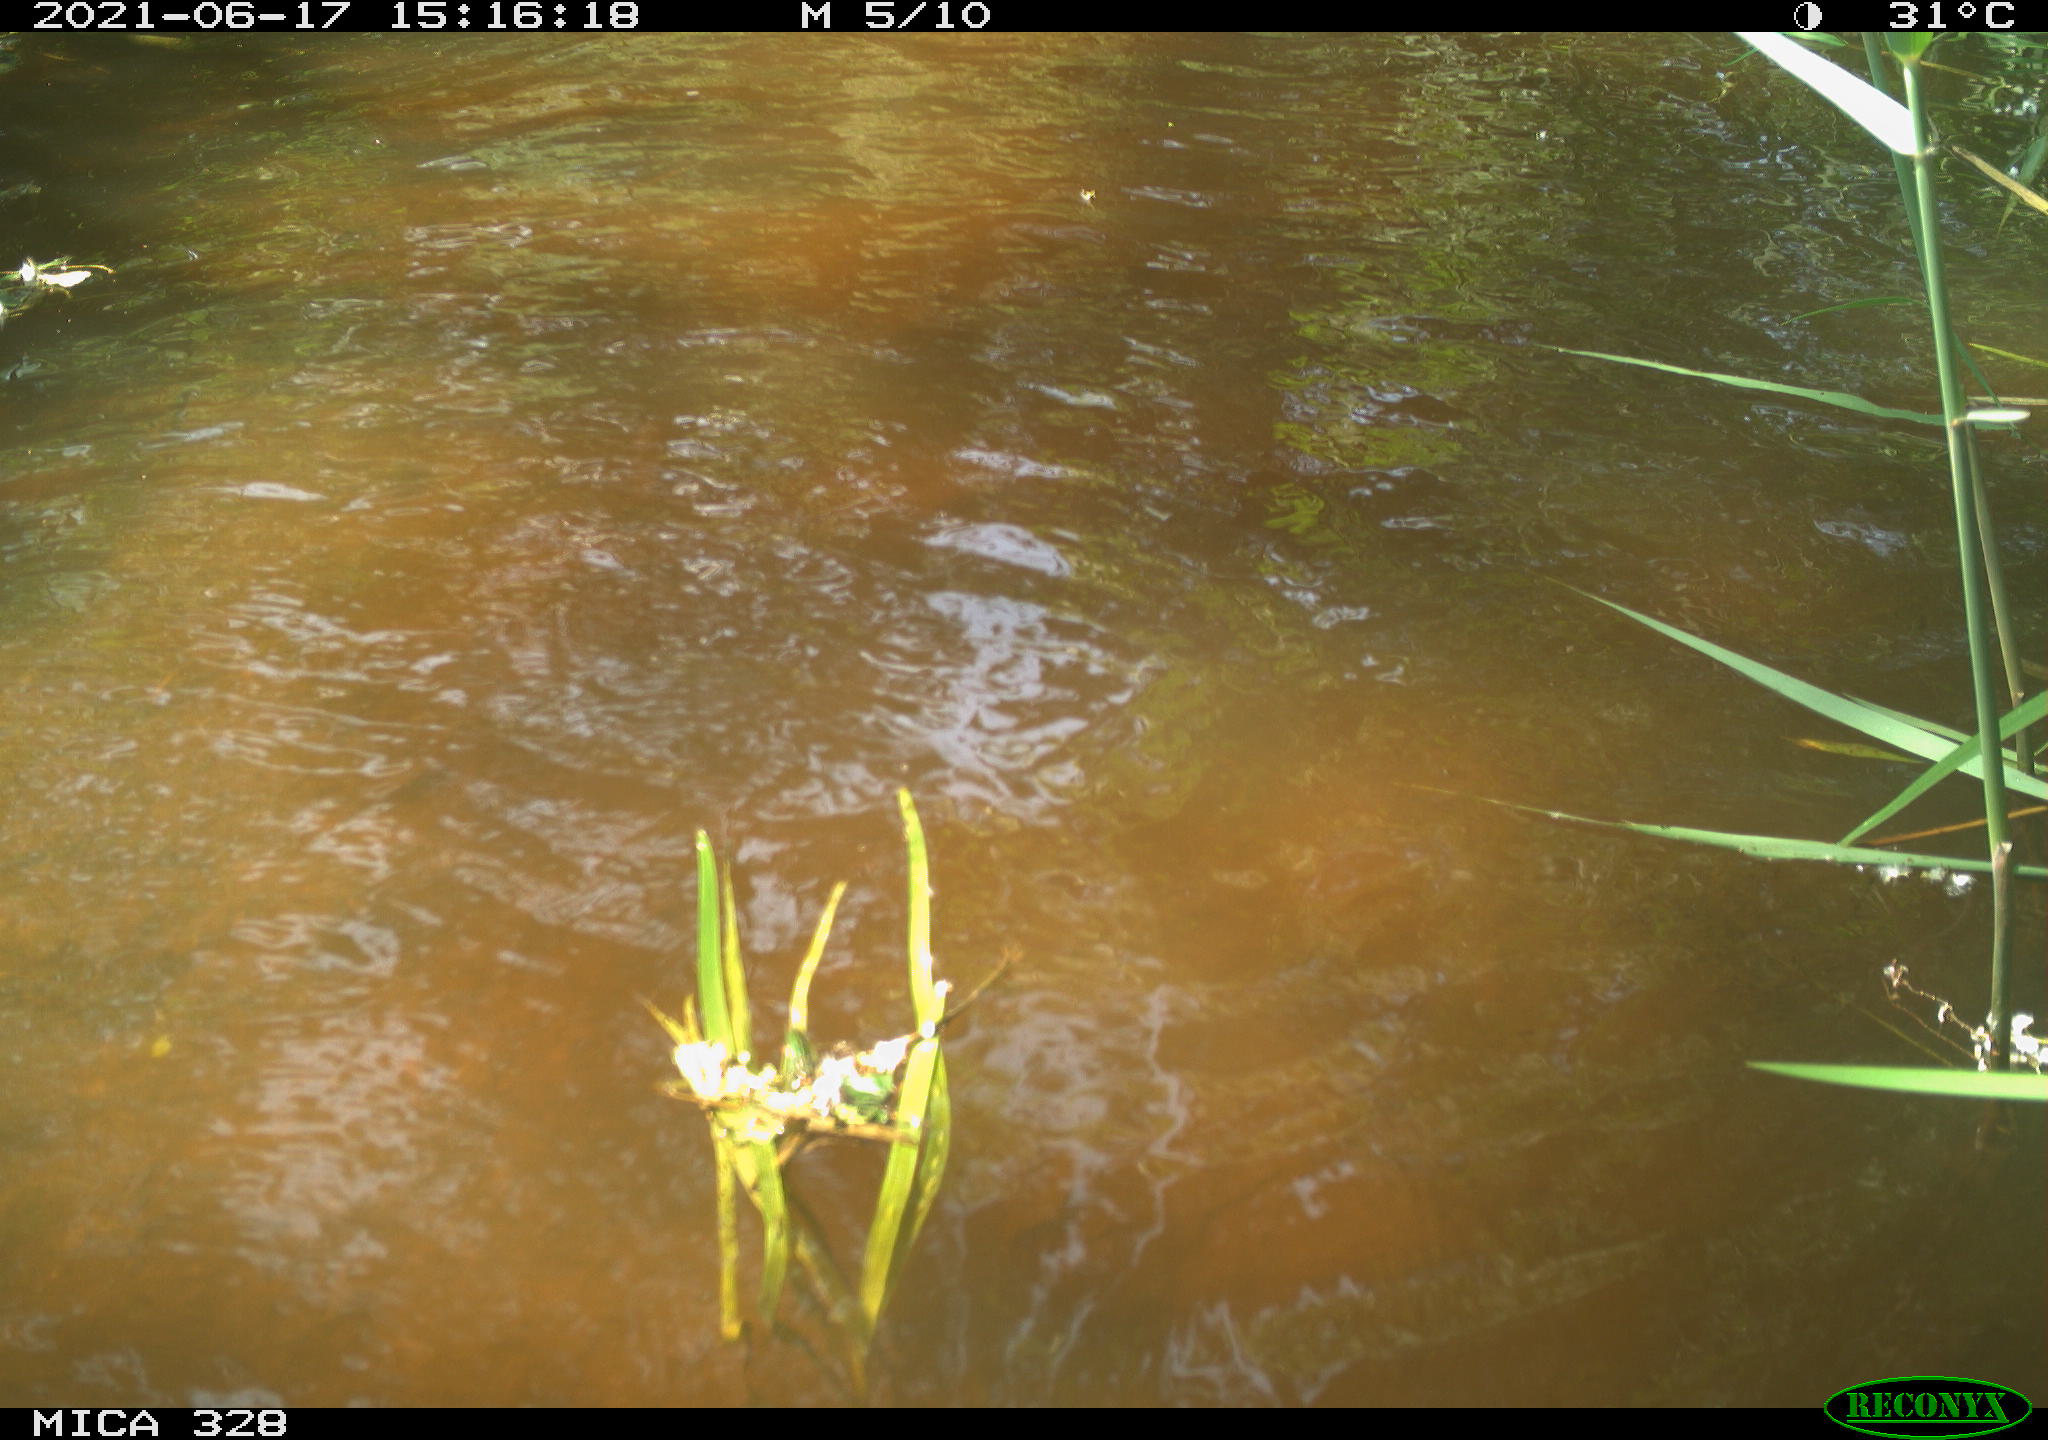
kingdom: Animalia
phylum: Chordata
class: Mammalia
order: Rodentia
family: Cricetidae
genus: Ondatra
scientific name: Ondatra zibethicus
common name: Muskrat
